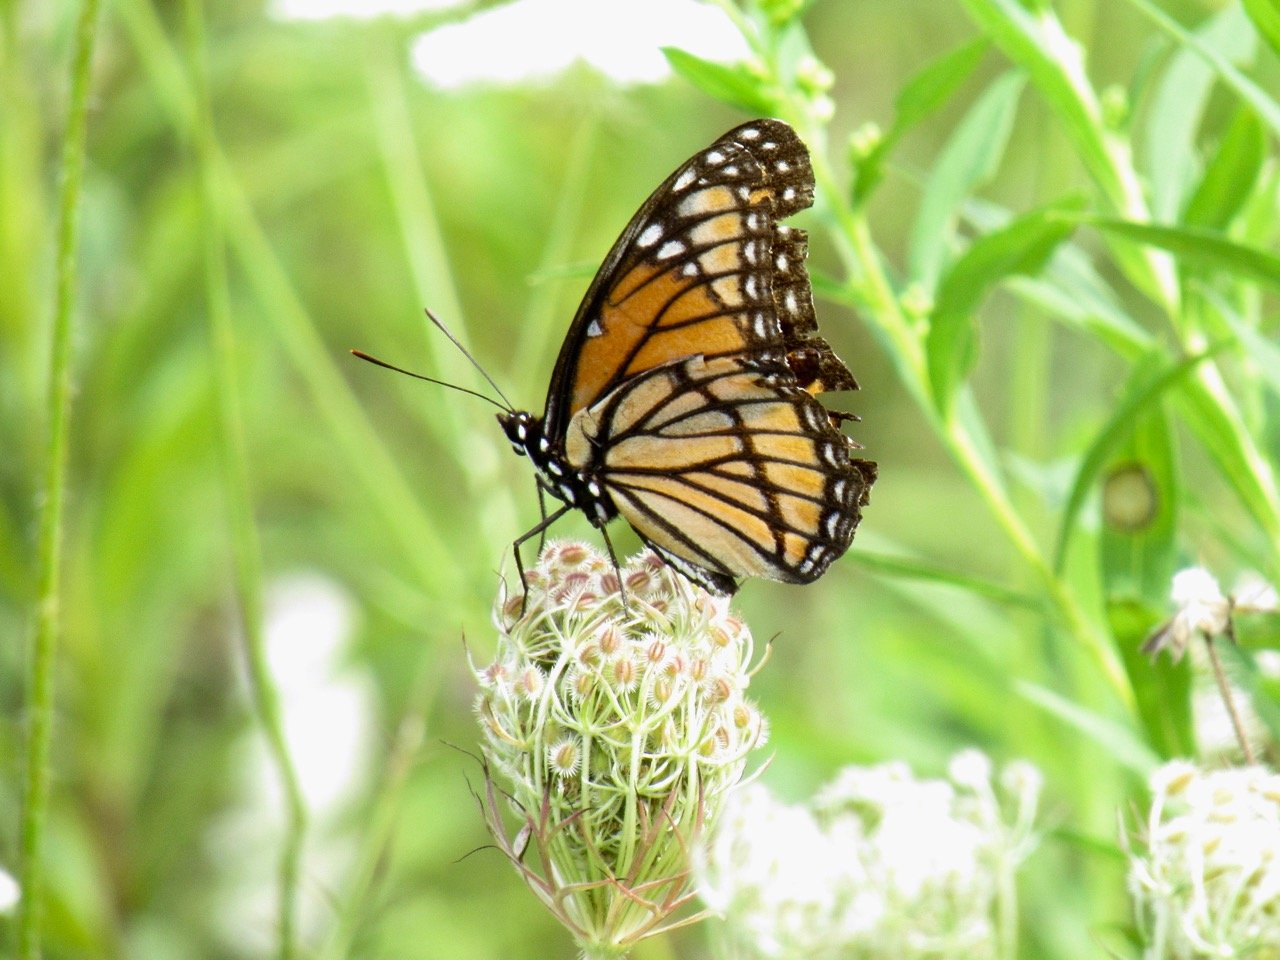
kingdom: Animalia
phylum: Arthropoda
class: Insecta
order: Lepidoptera
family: Nymphalidae
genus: Limenitis
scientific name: Limenitis archippus
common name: Viceroy
